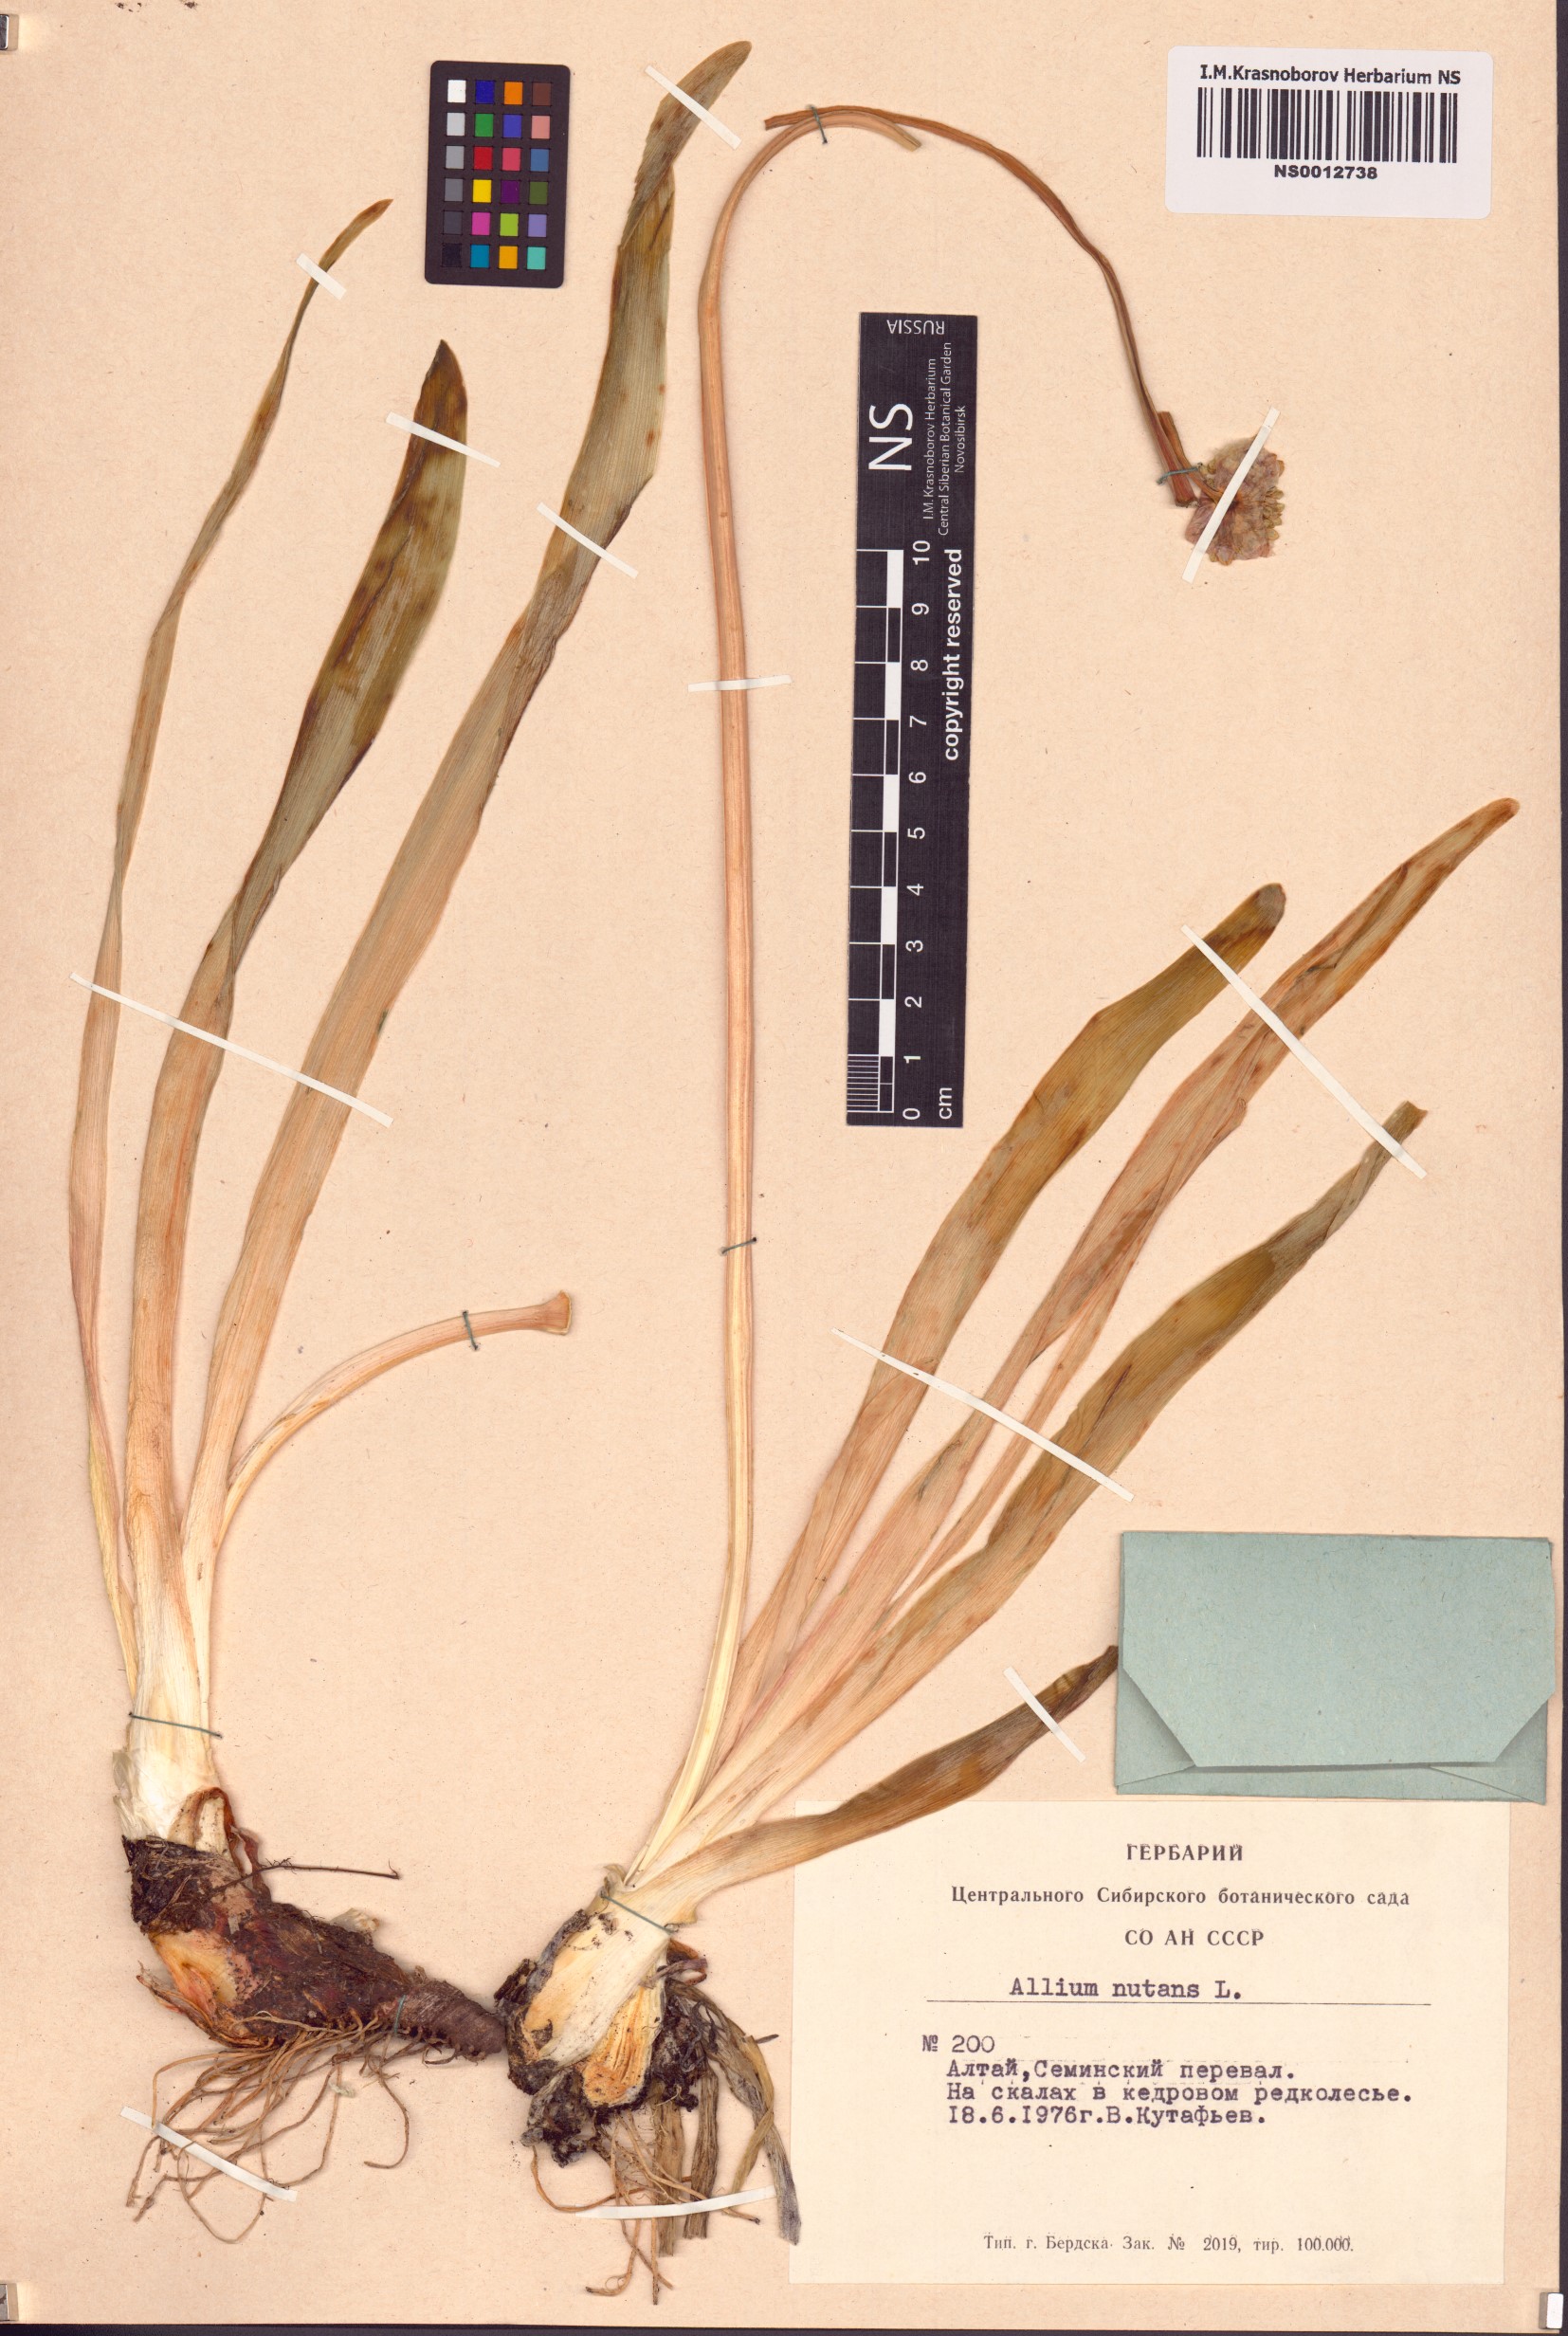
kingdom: Plantae
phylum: Tracheophyta
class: Liliopsida
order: Asparagales
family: Amaryllidaceae
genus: Allium
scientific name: Allium nutans
